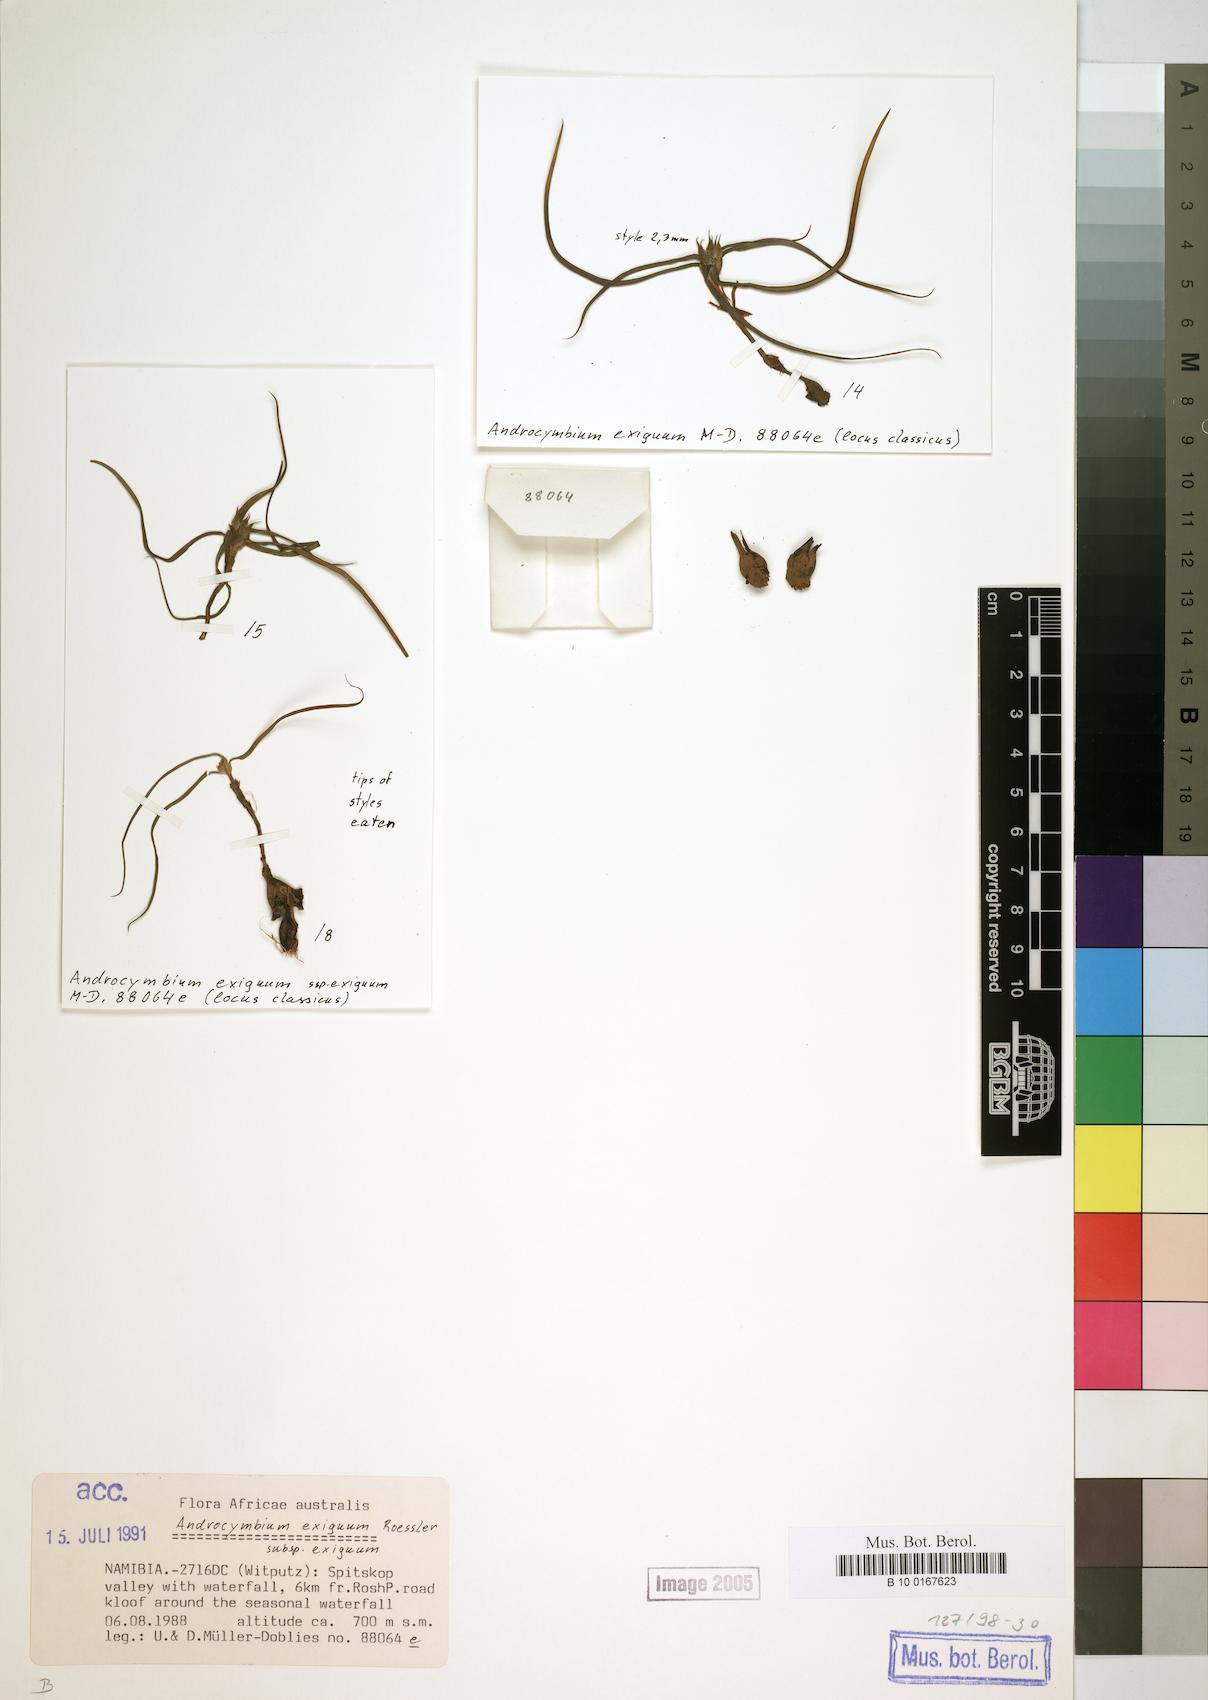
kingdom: Plantae
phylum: Tracheophyta
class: Liliopsida
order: Liliales
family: Colchicaceae
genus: Colchicum
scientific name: Colchicum exiguum
